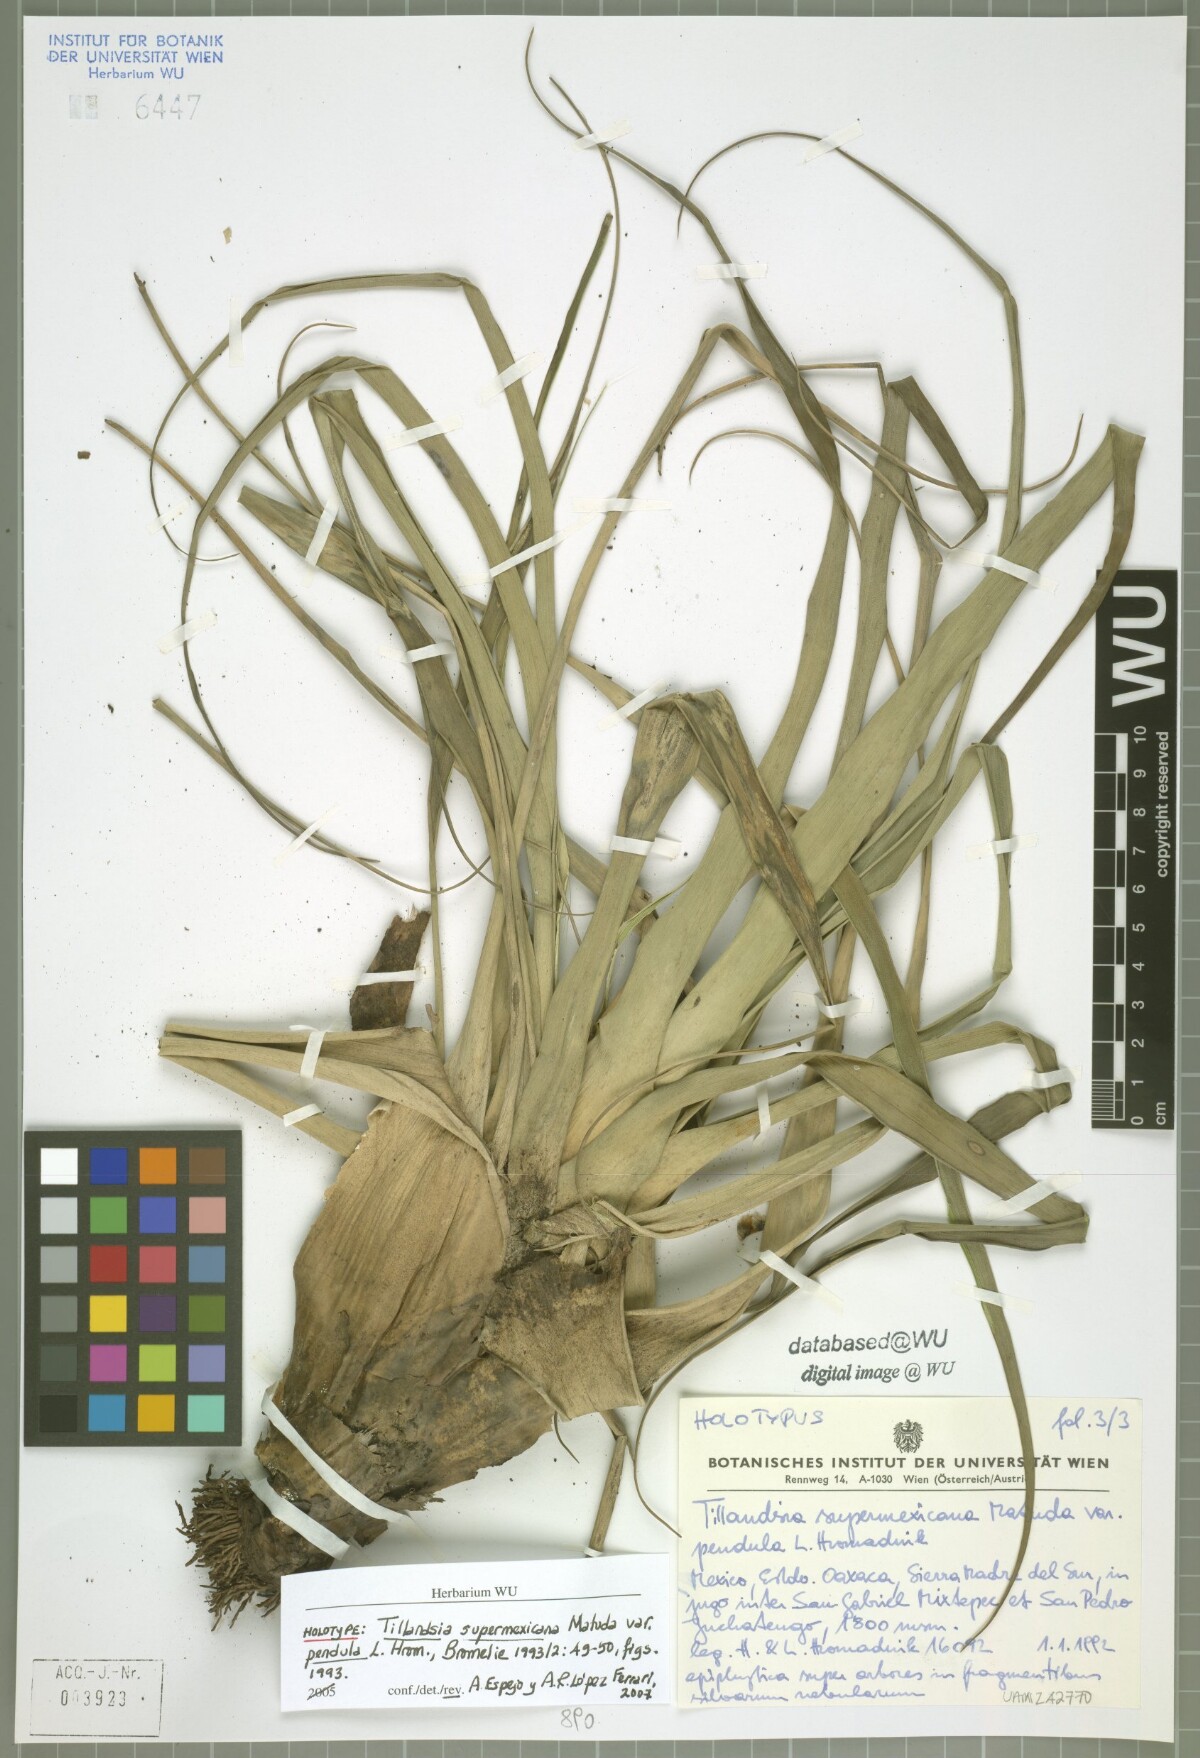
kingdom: Plantae
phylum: Tracheophyta
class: Liliopsida
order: Poales
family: Bromeliaceae
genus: Tillandsia
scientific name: Tillandsia supermexicana
